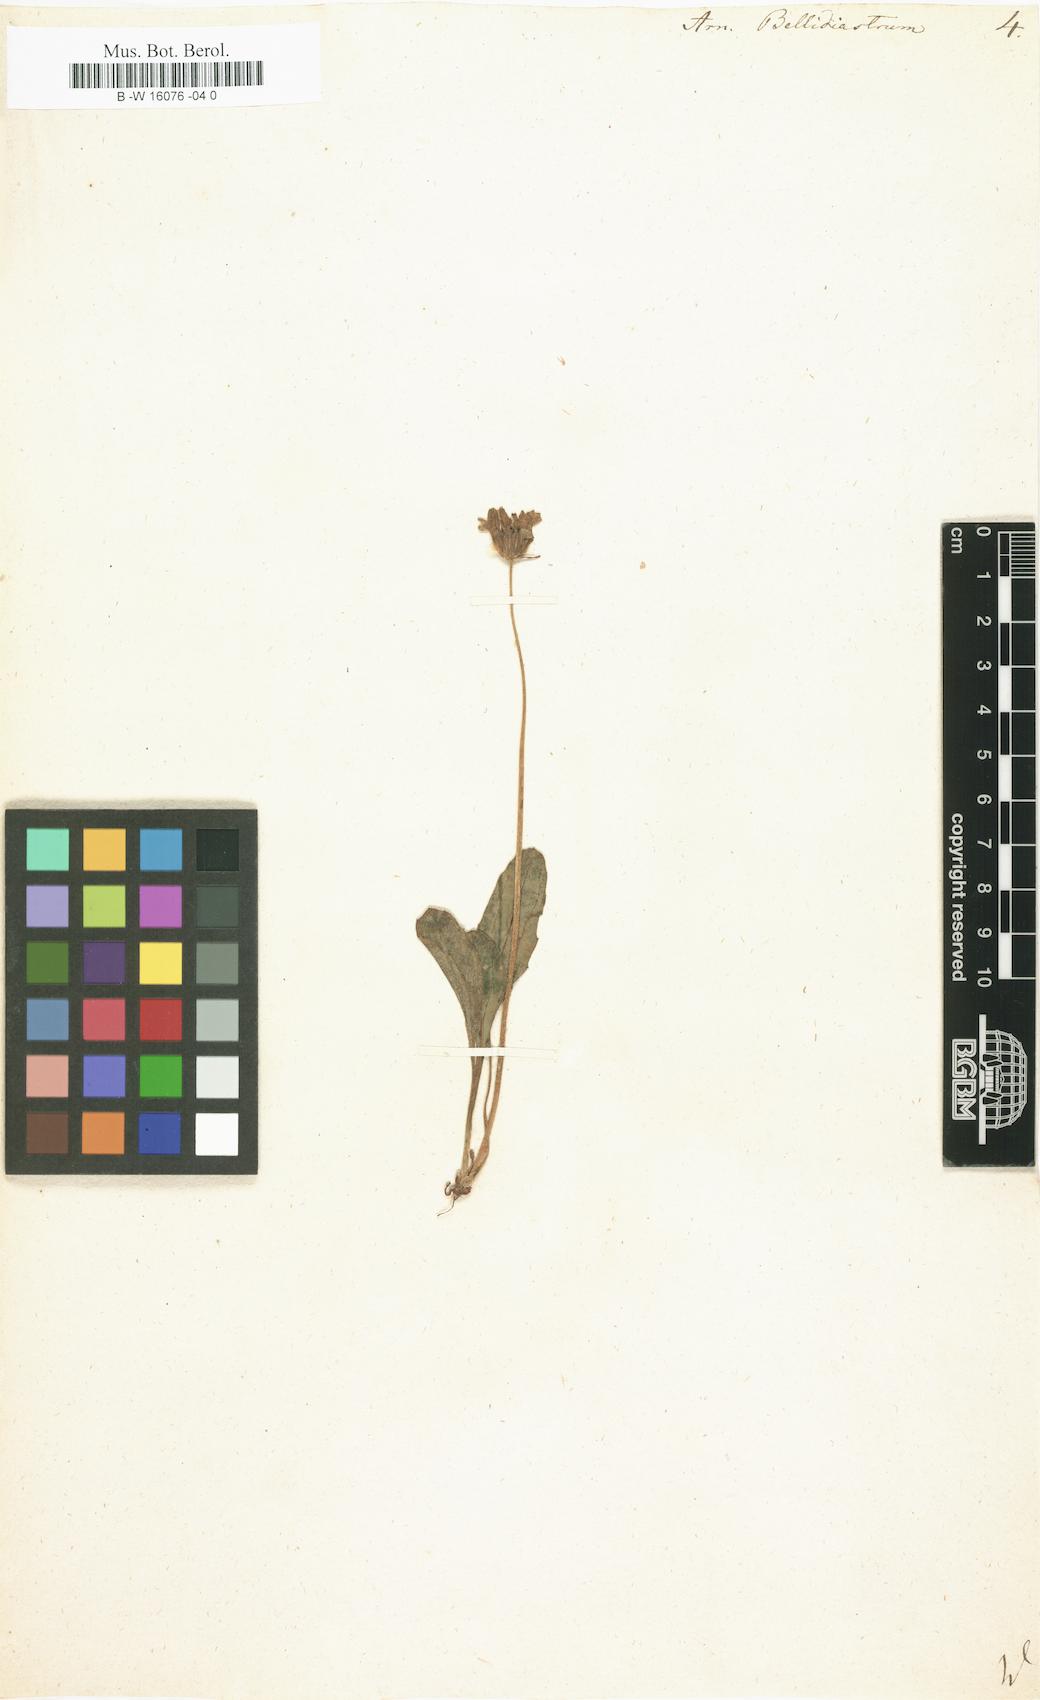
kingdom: Plantae
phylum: Tracheophyta
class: Magnoliopsida
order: Asterales
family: Asteraceae
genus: Bellidiastrum
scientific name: Bellidiastrum michelii
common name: Daisy-star aster
